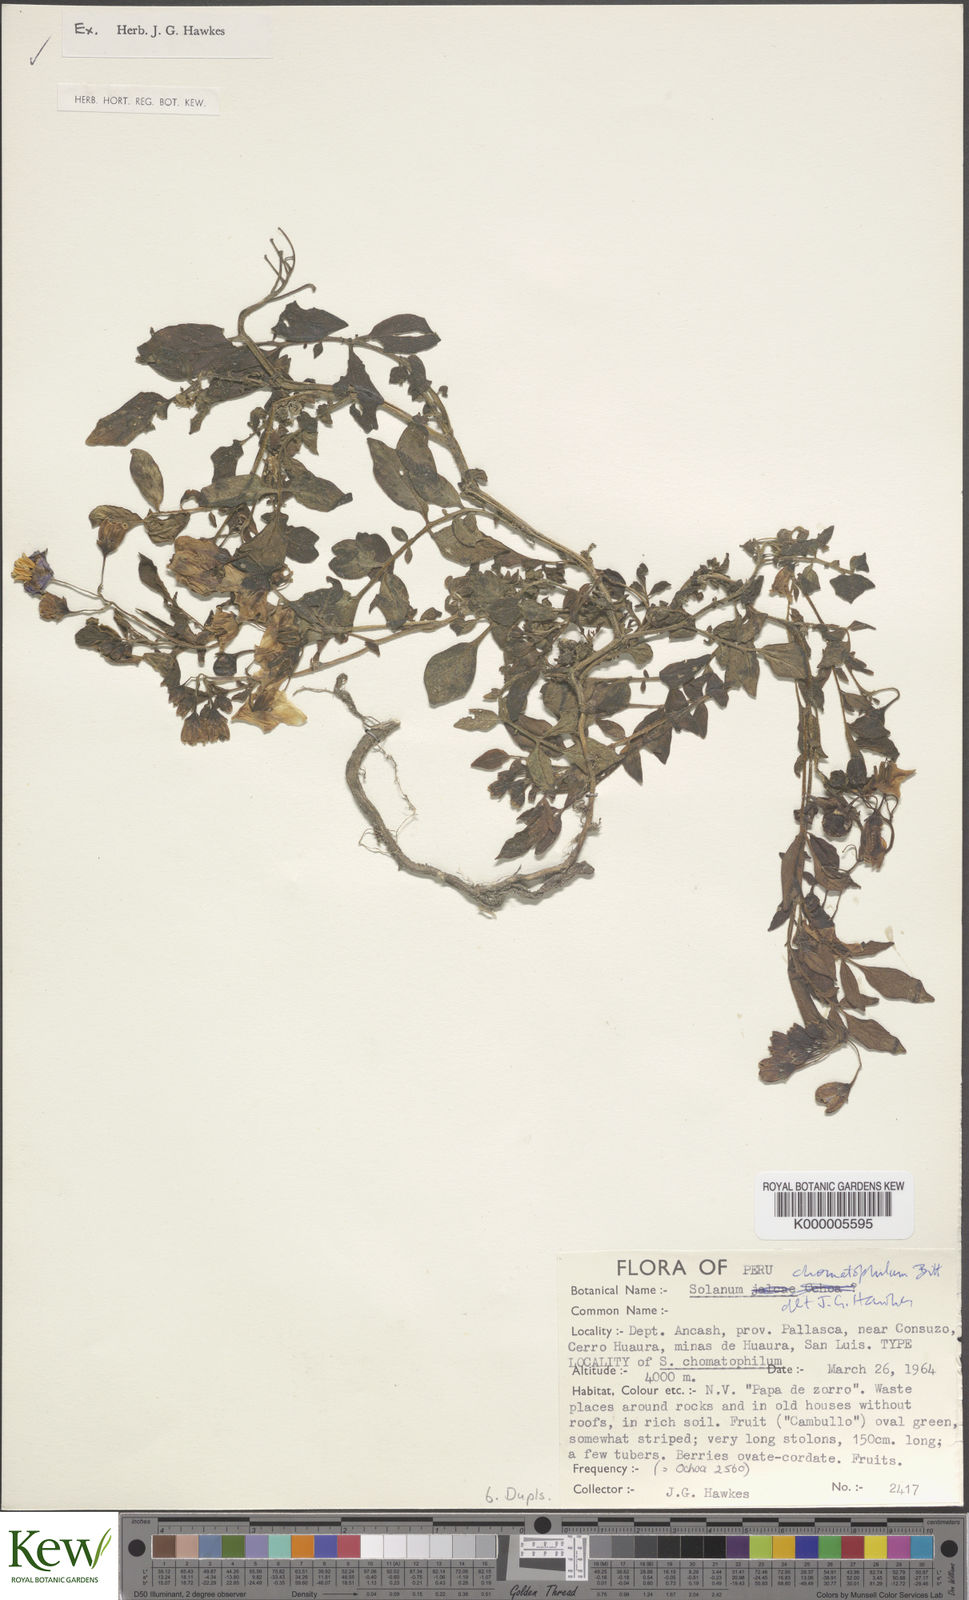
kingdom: Plantae
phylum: Tracheophyta
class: Magnoliopsida
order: Solanales
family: Solanaceae
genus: Solanum
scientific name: Solanum chomatophilum
